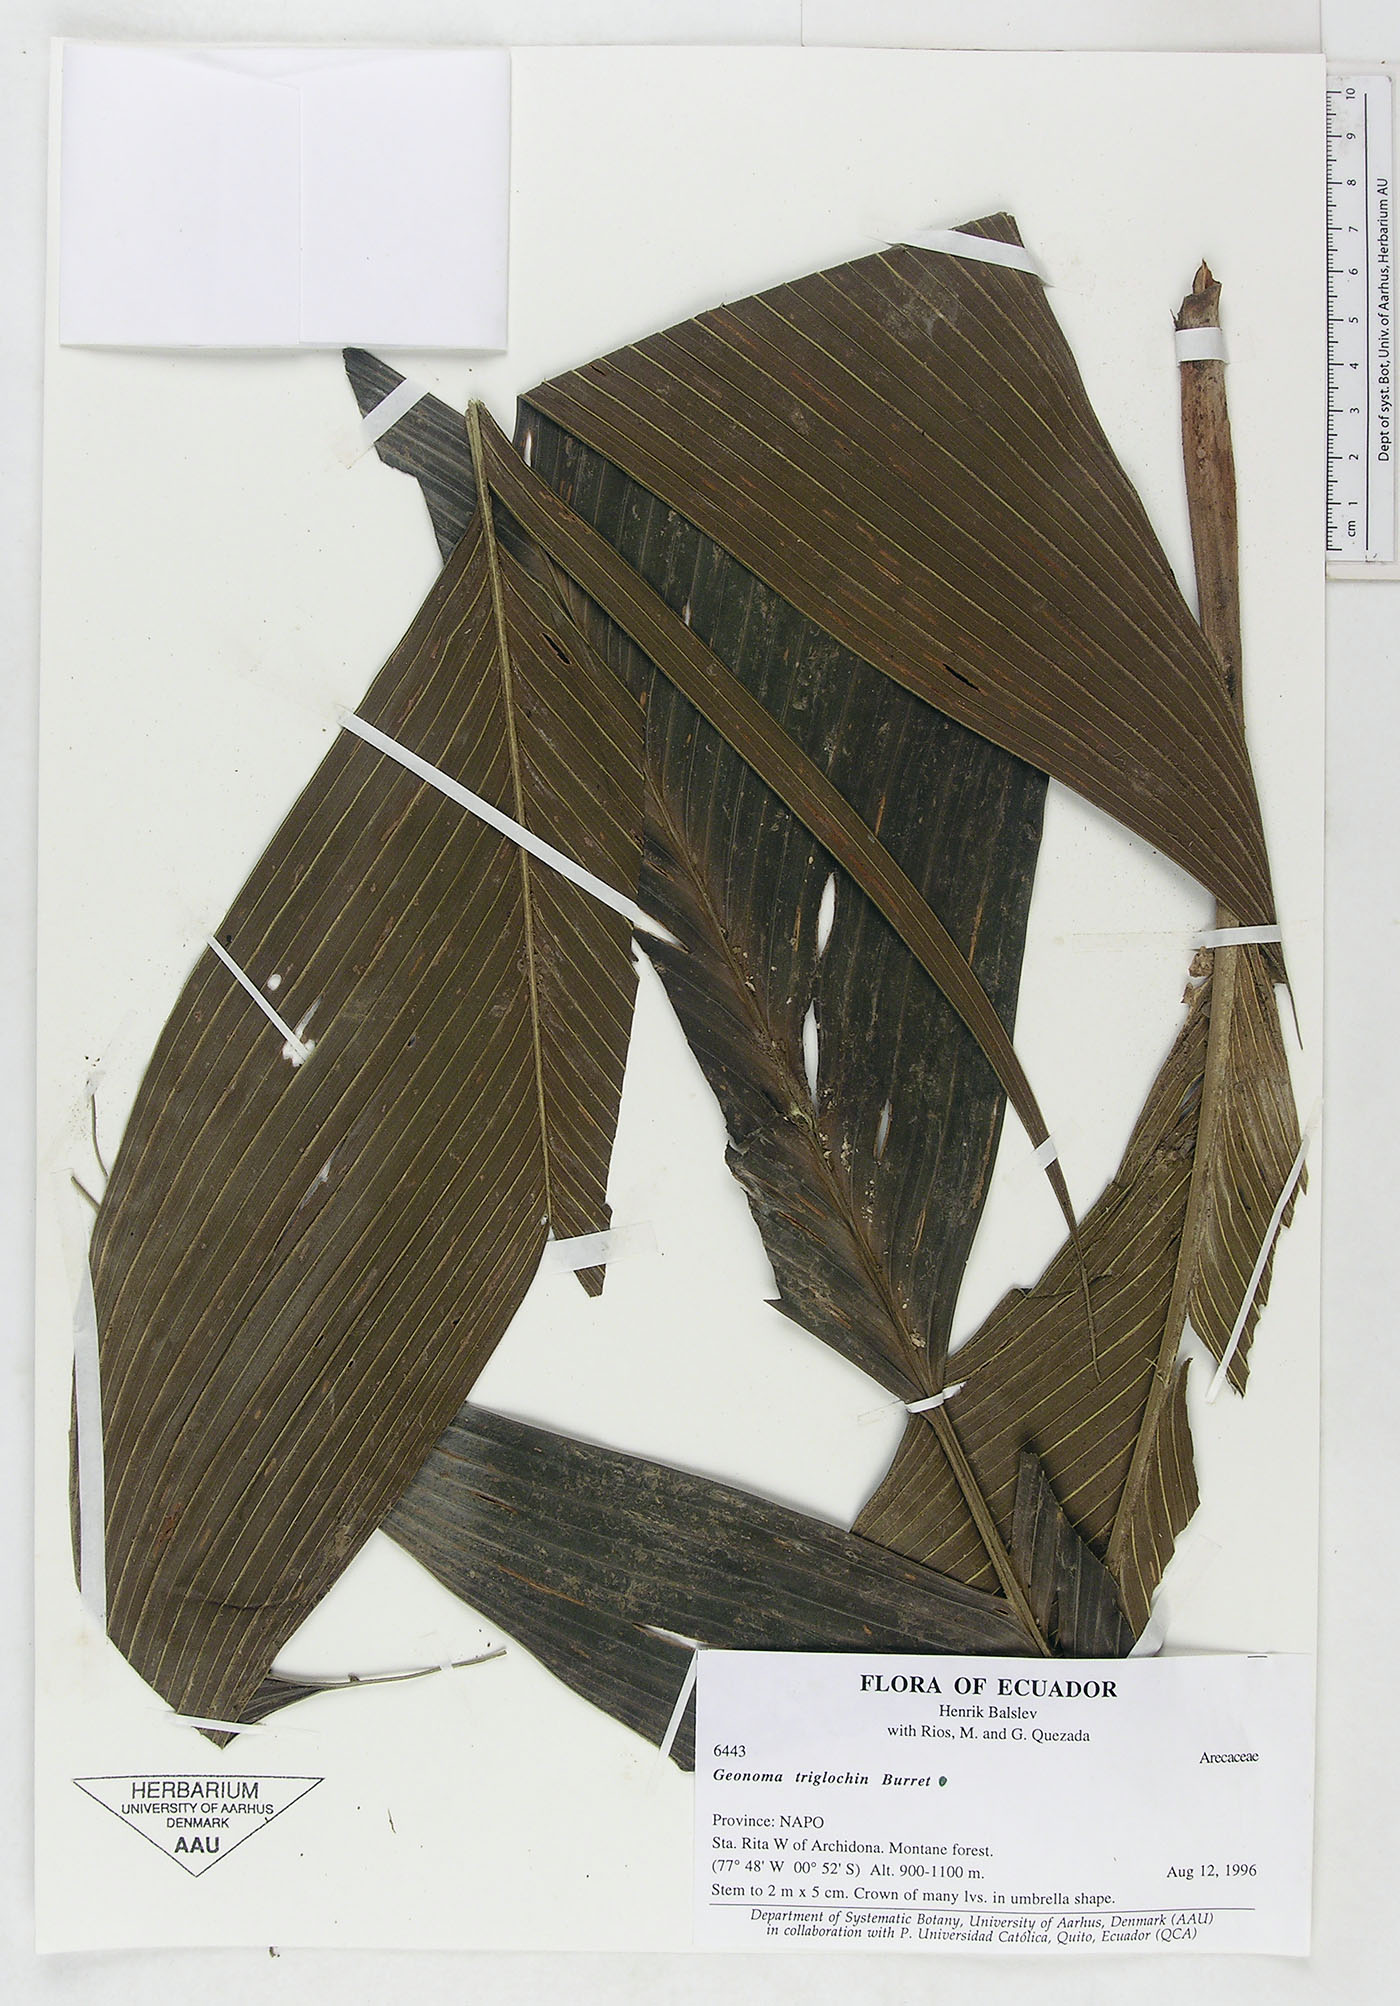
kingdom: Plantae
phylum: Tracheophyta
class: Liliopsida
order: Arecales
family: Arecaceae
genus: Geonoma
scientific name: Geonoma triglochin
